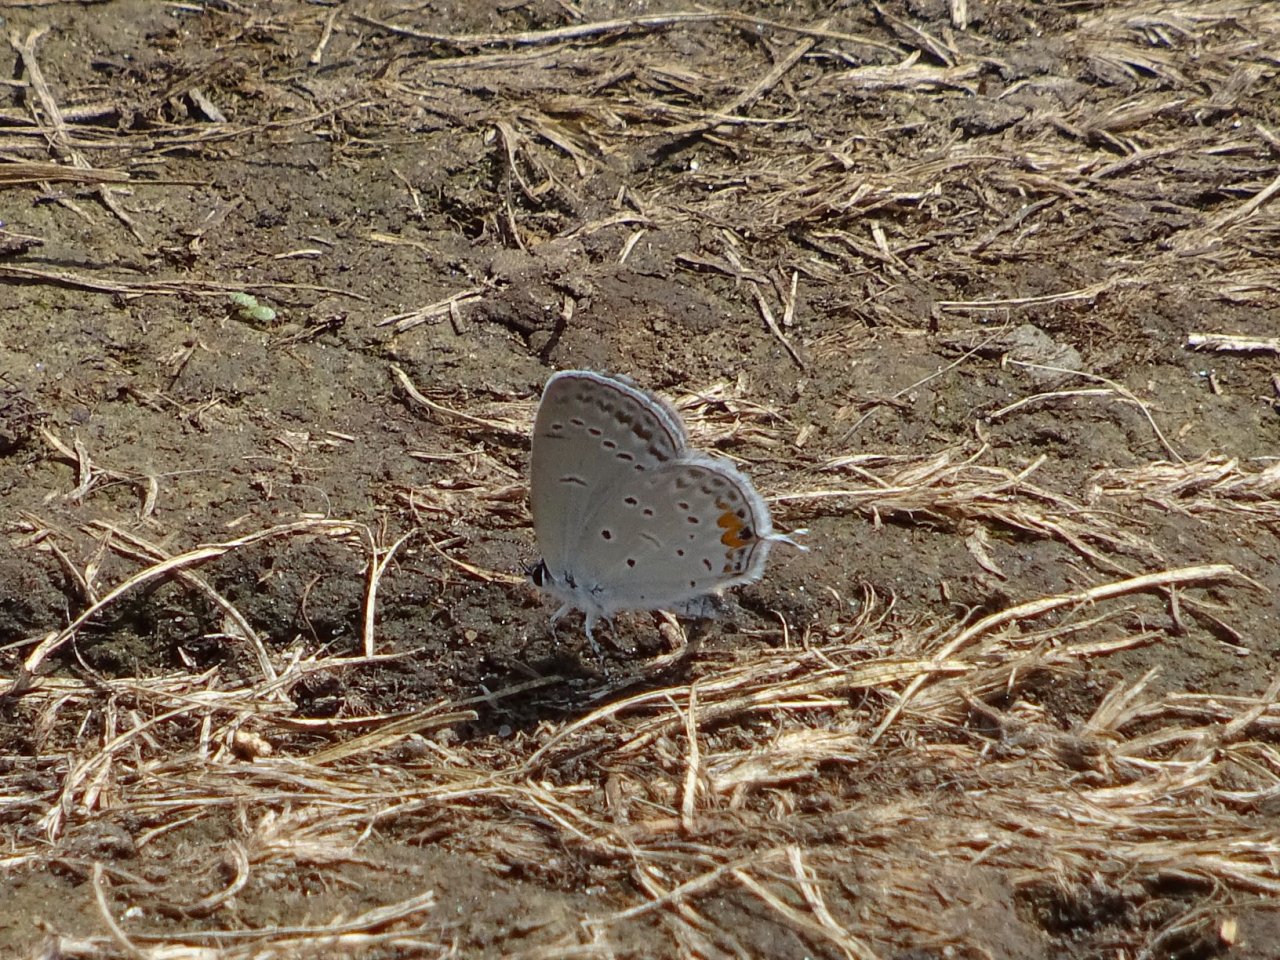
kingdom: Animalia
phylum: Arthropoda
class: Insecta
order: Lepidoptera
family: Lycaenidae
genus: Elkalyce
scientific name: Elkalyce comyntas
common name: Eastern Tailed-Blue
